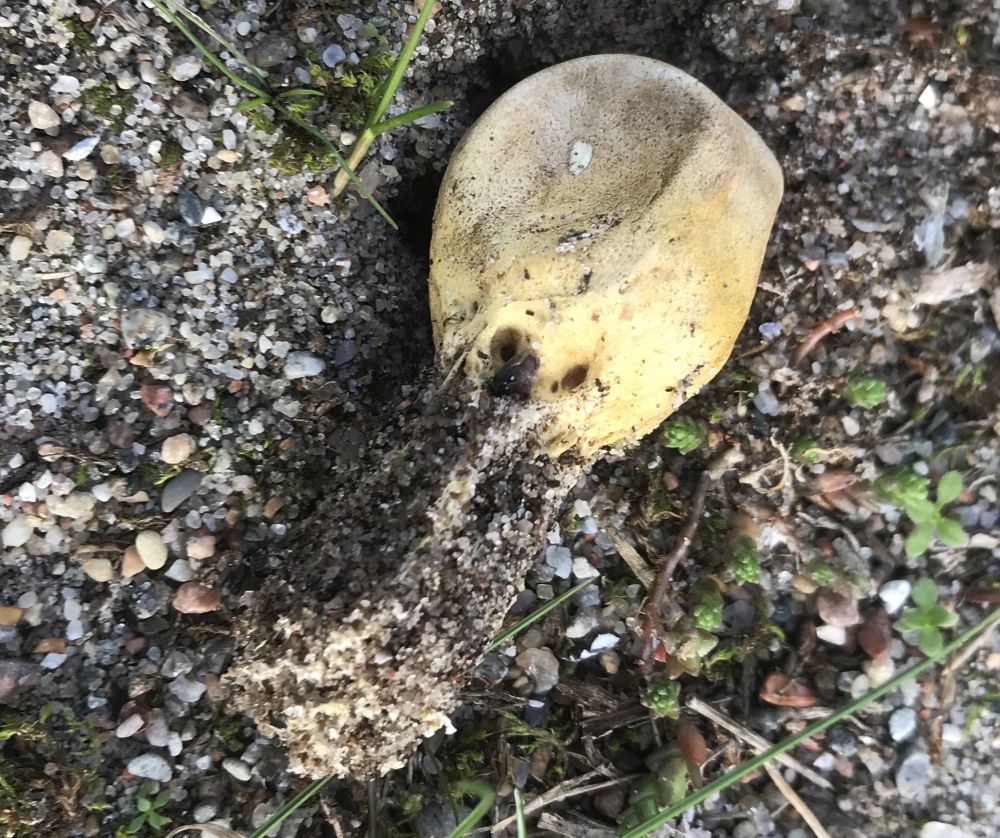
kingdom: Fungi
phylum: Basidiomycota
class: Agaricomycetes
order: Boletales
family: Sclerodermataceae
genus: Scleroderma
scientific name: Scleroderma
